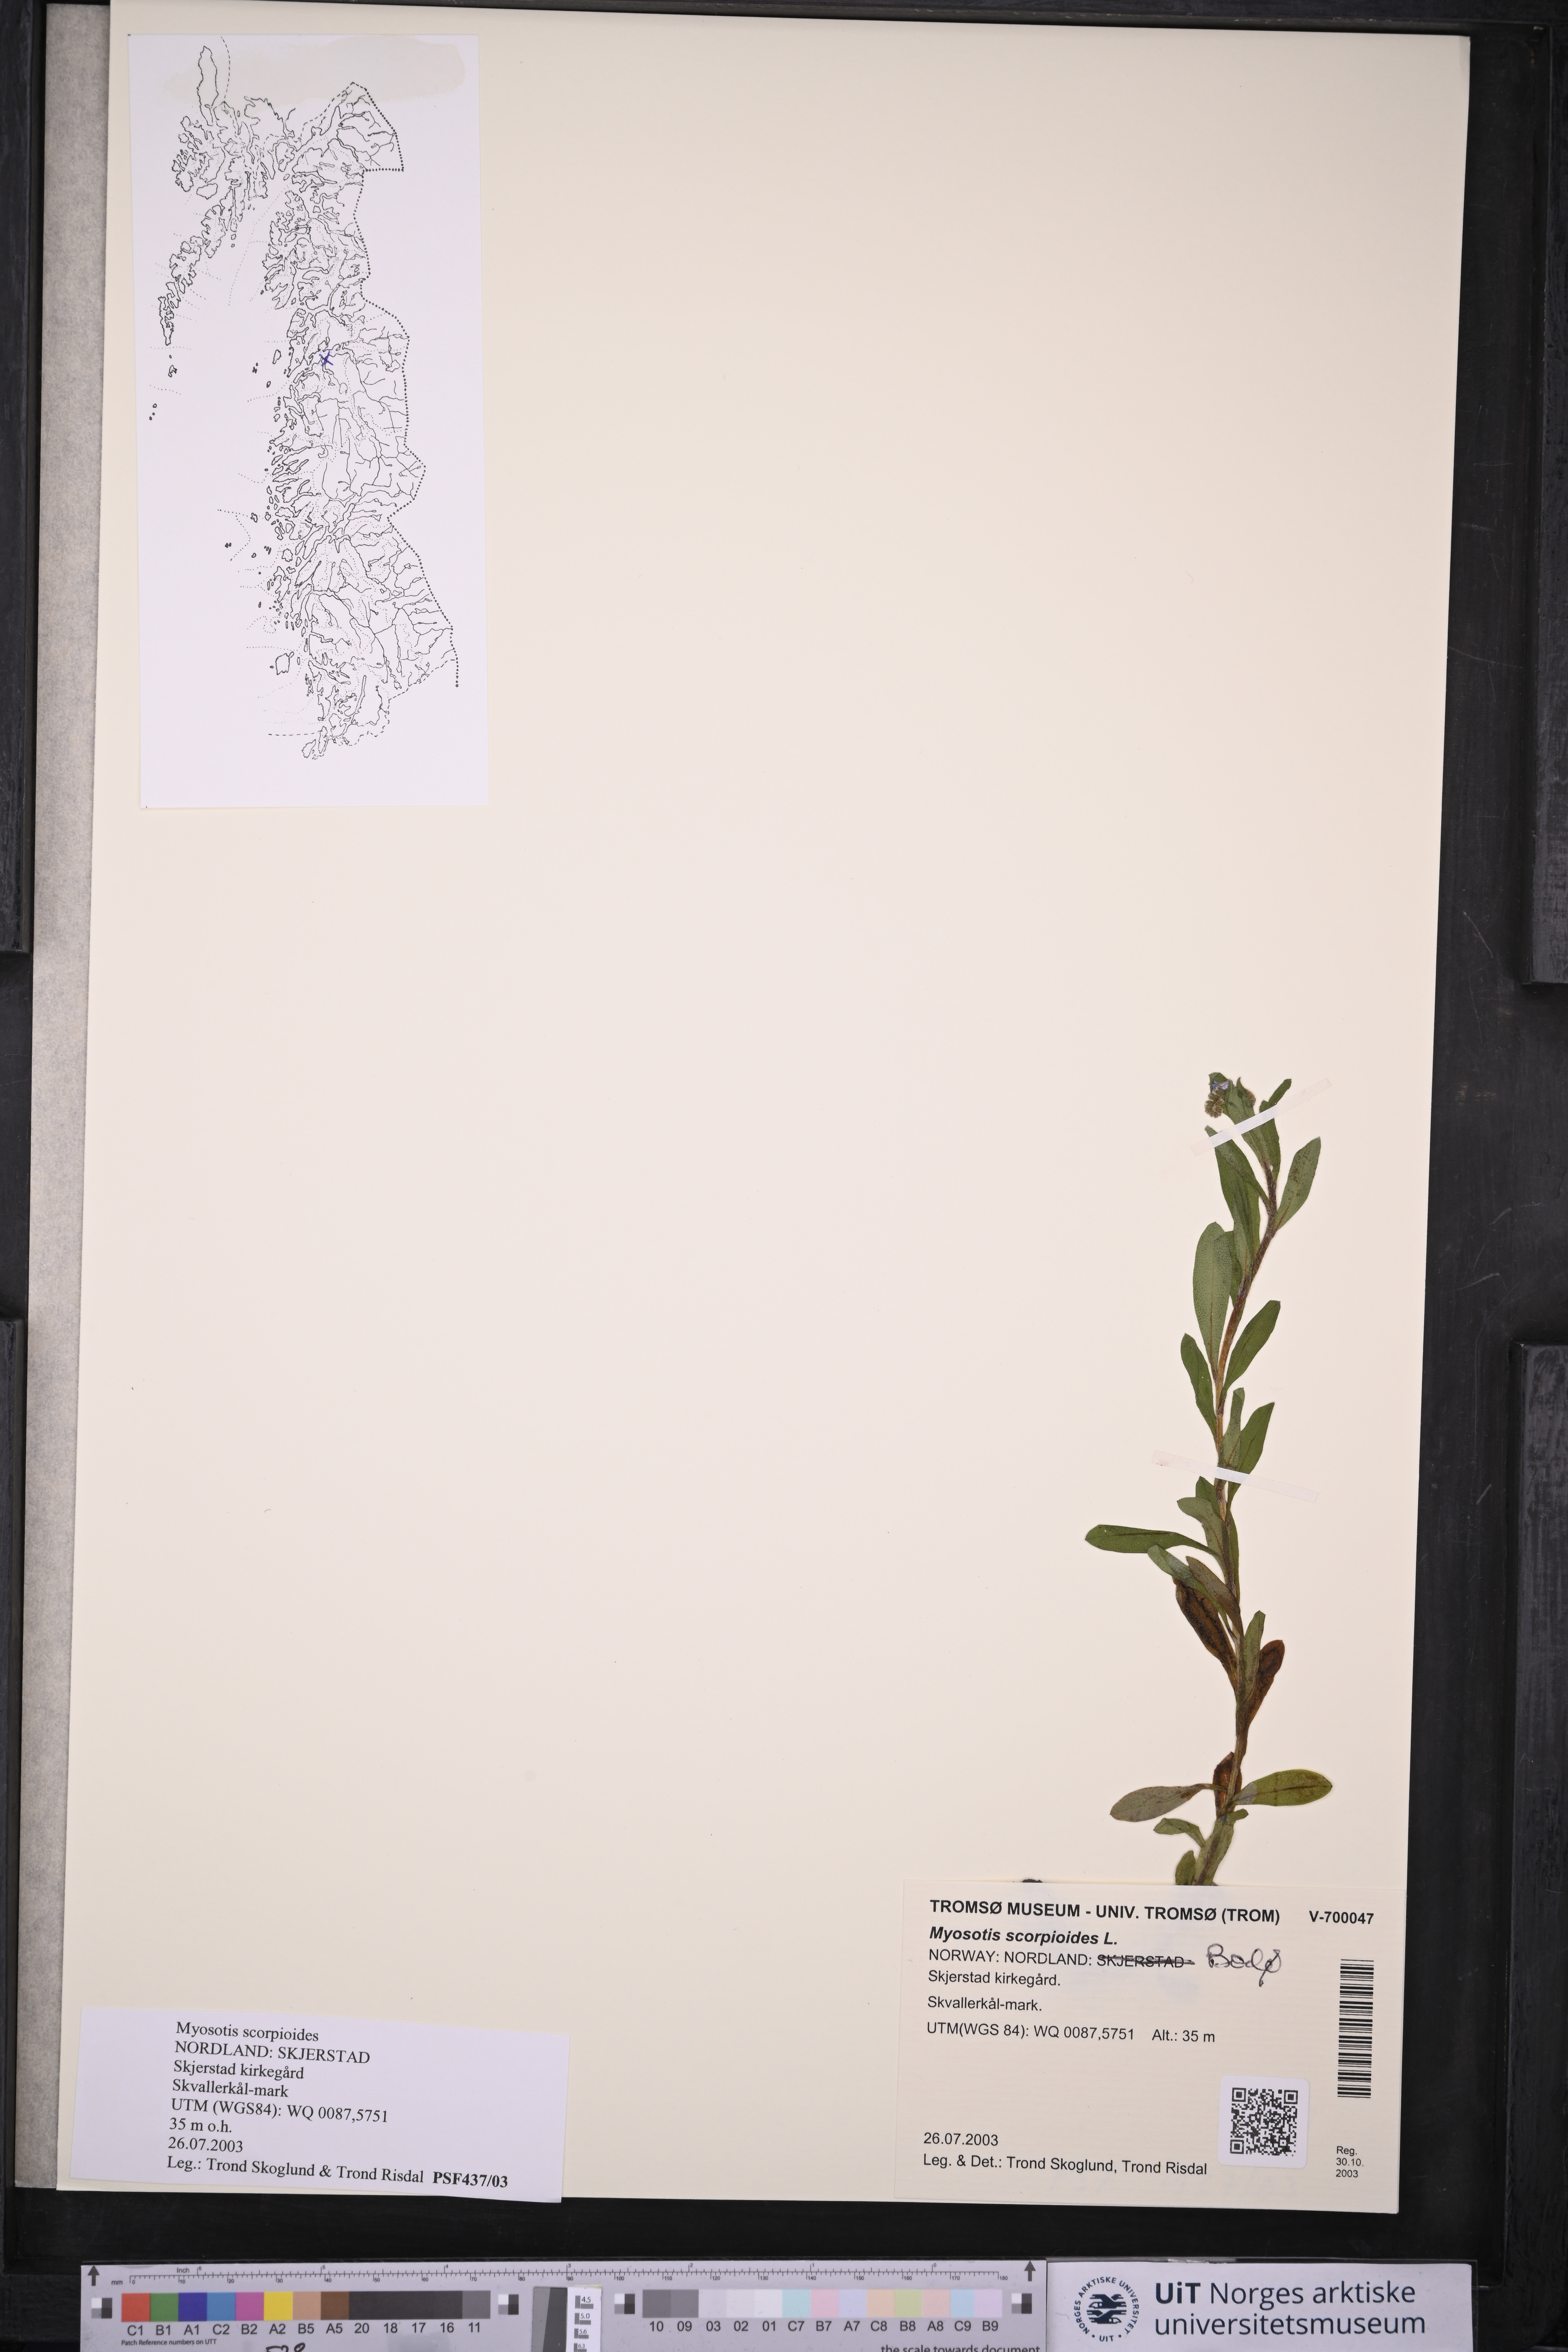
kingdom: Plantae
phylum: Tracheophyta
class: Magnoliopsida
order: Boraginales
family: Boraginaceae
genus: Myosotis
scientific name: Myosotis scorpioides
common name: Water forget-me-not
